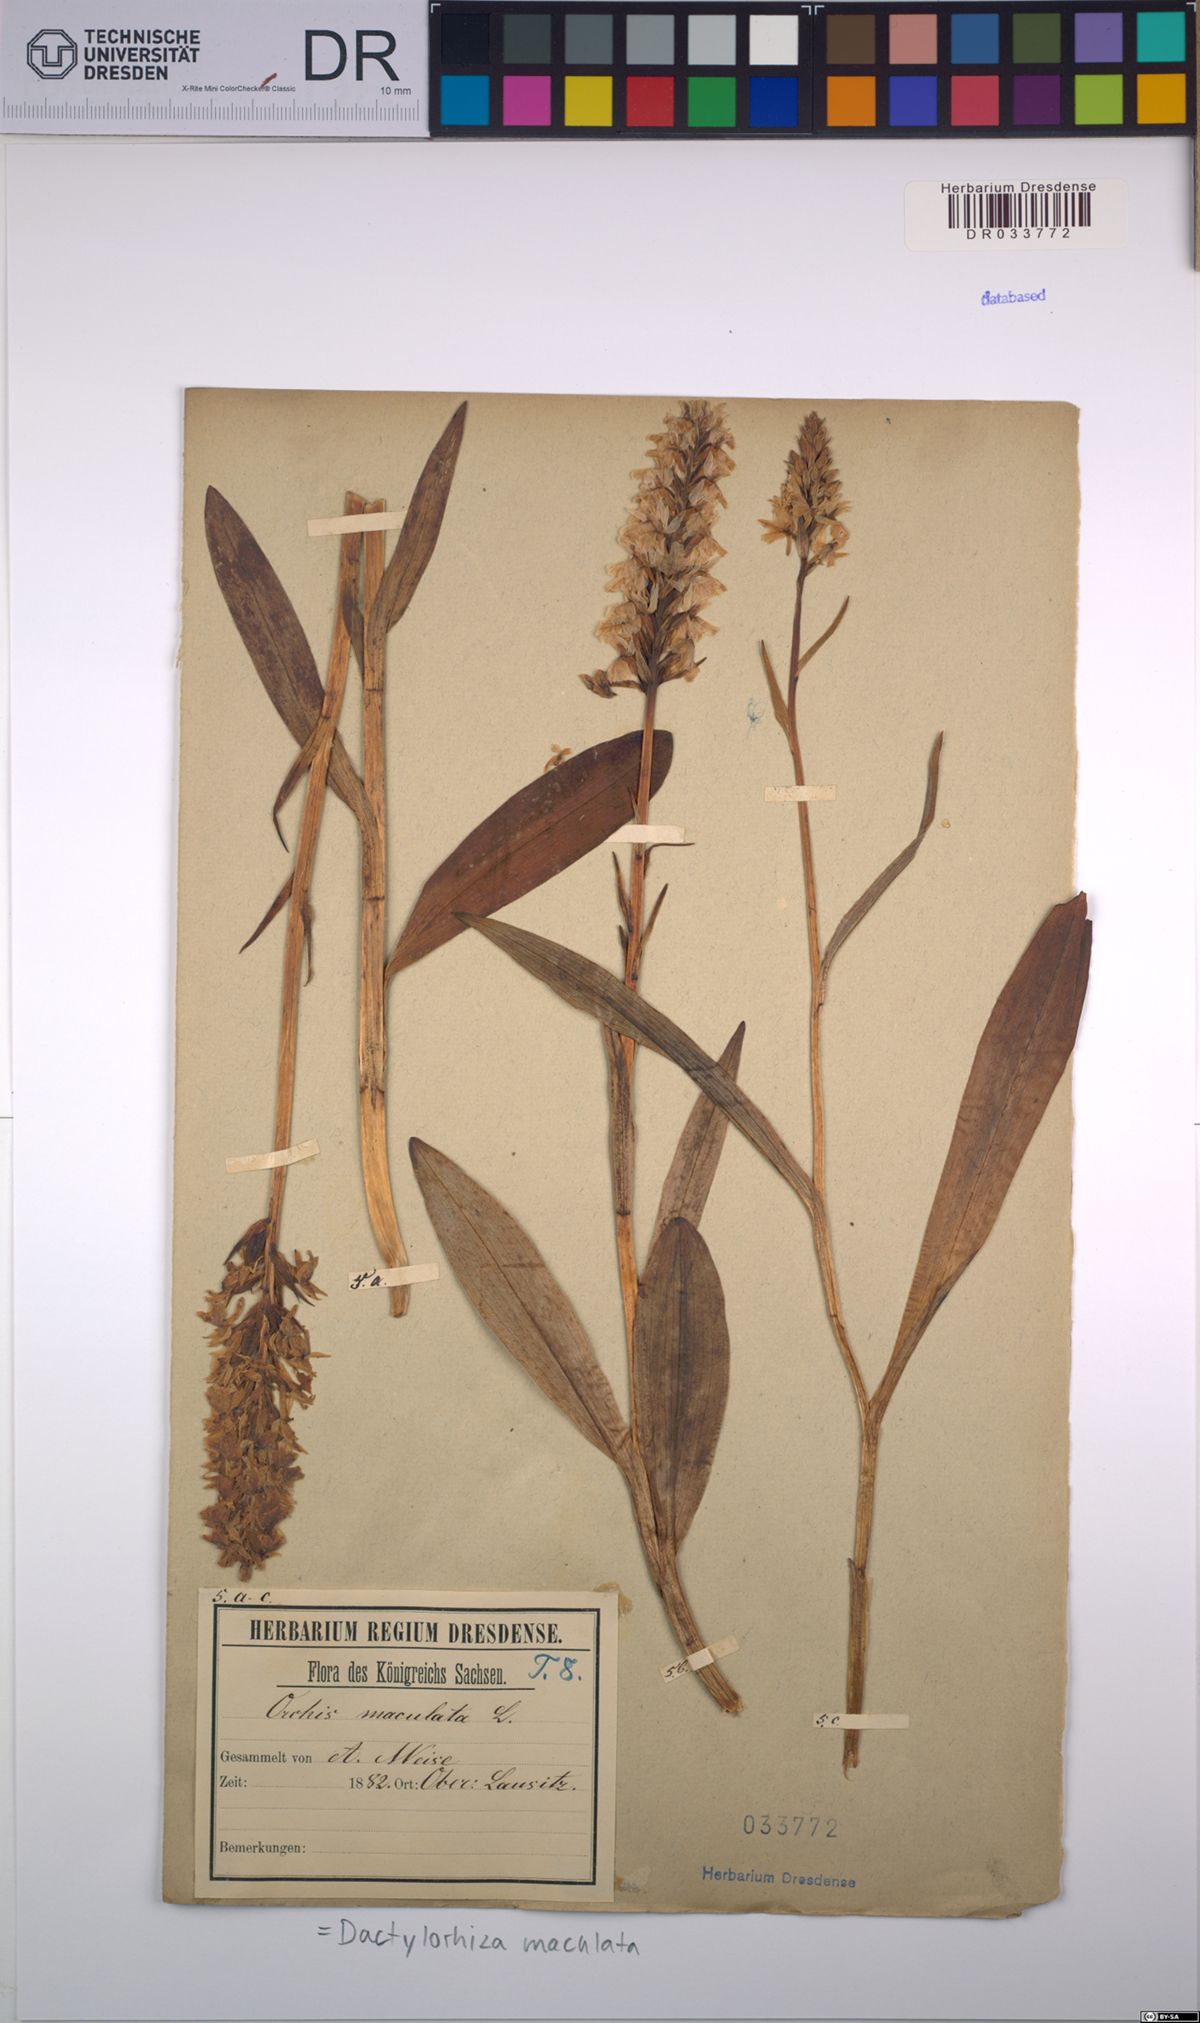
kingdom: Plantae
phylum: Tracheophyta
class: Liliopsida
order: Asparagales
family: Orchidaceae
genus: Dactylorhiza
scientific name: Dactylorhiza maculata
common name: Heath spotted-orchid
